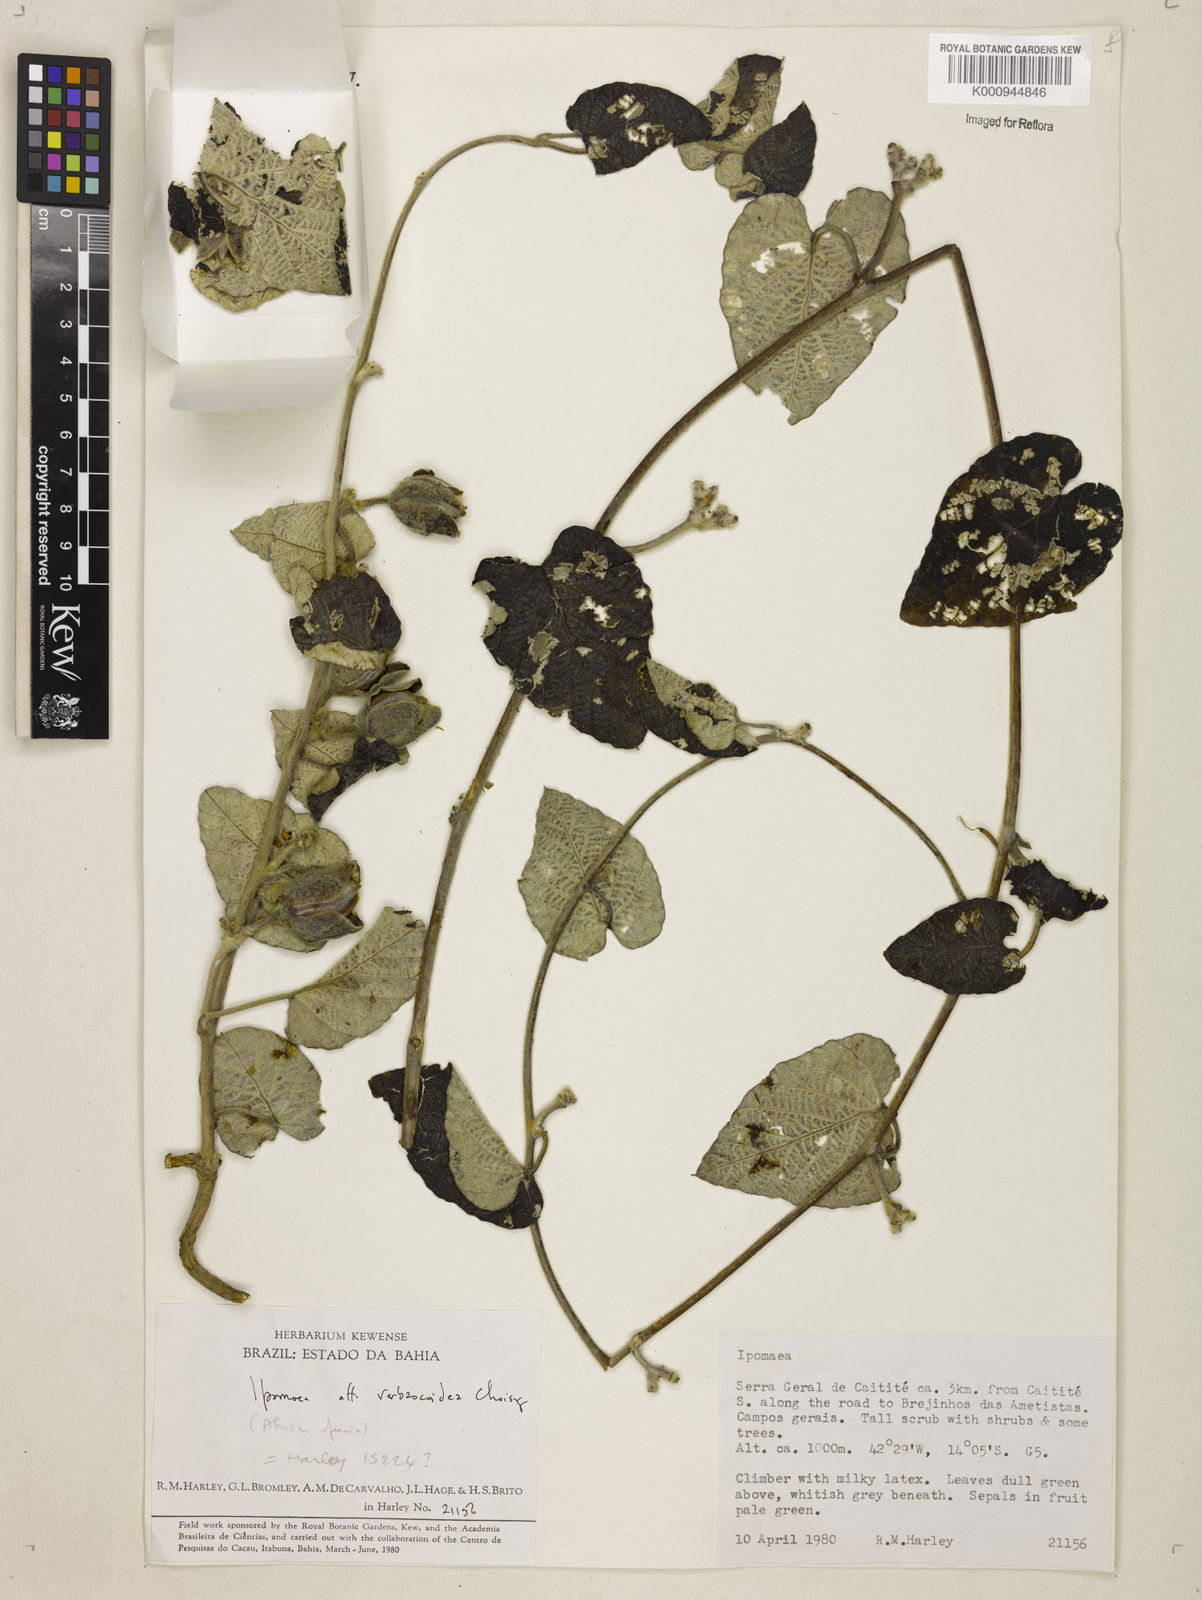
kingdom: Plantae
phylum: Tracheophyta
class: Magnoliopsida
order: Solanales
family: Convolvulaceae
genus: Ipomoea
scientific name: Ipomoea brasiliana
